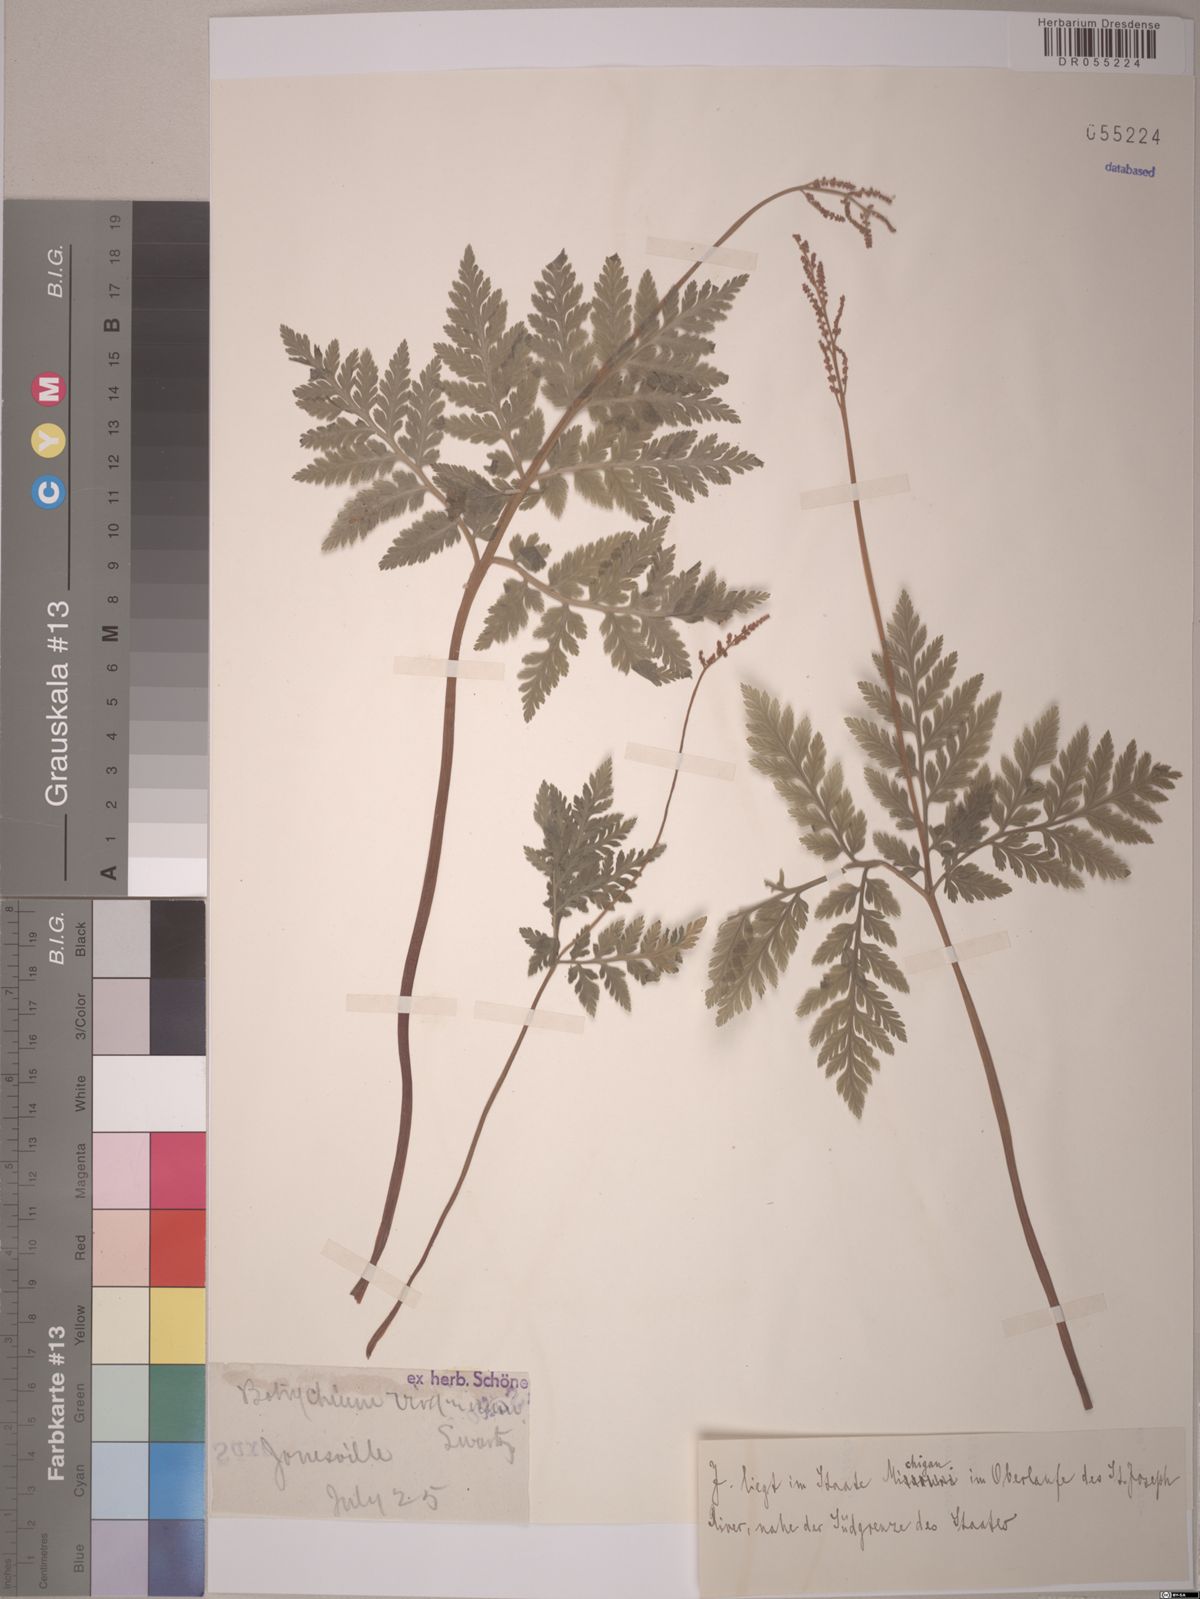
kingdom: Plantae
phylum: Tracheophyta
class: Polypodiopsida
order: Ophioglossales
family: Ophioglossaceae
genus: Botrypus
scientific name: Botrypus virginianus
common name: Common grapefern
